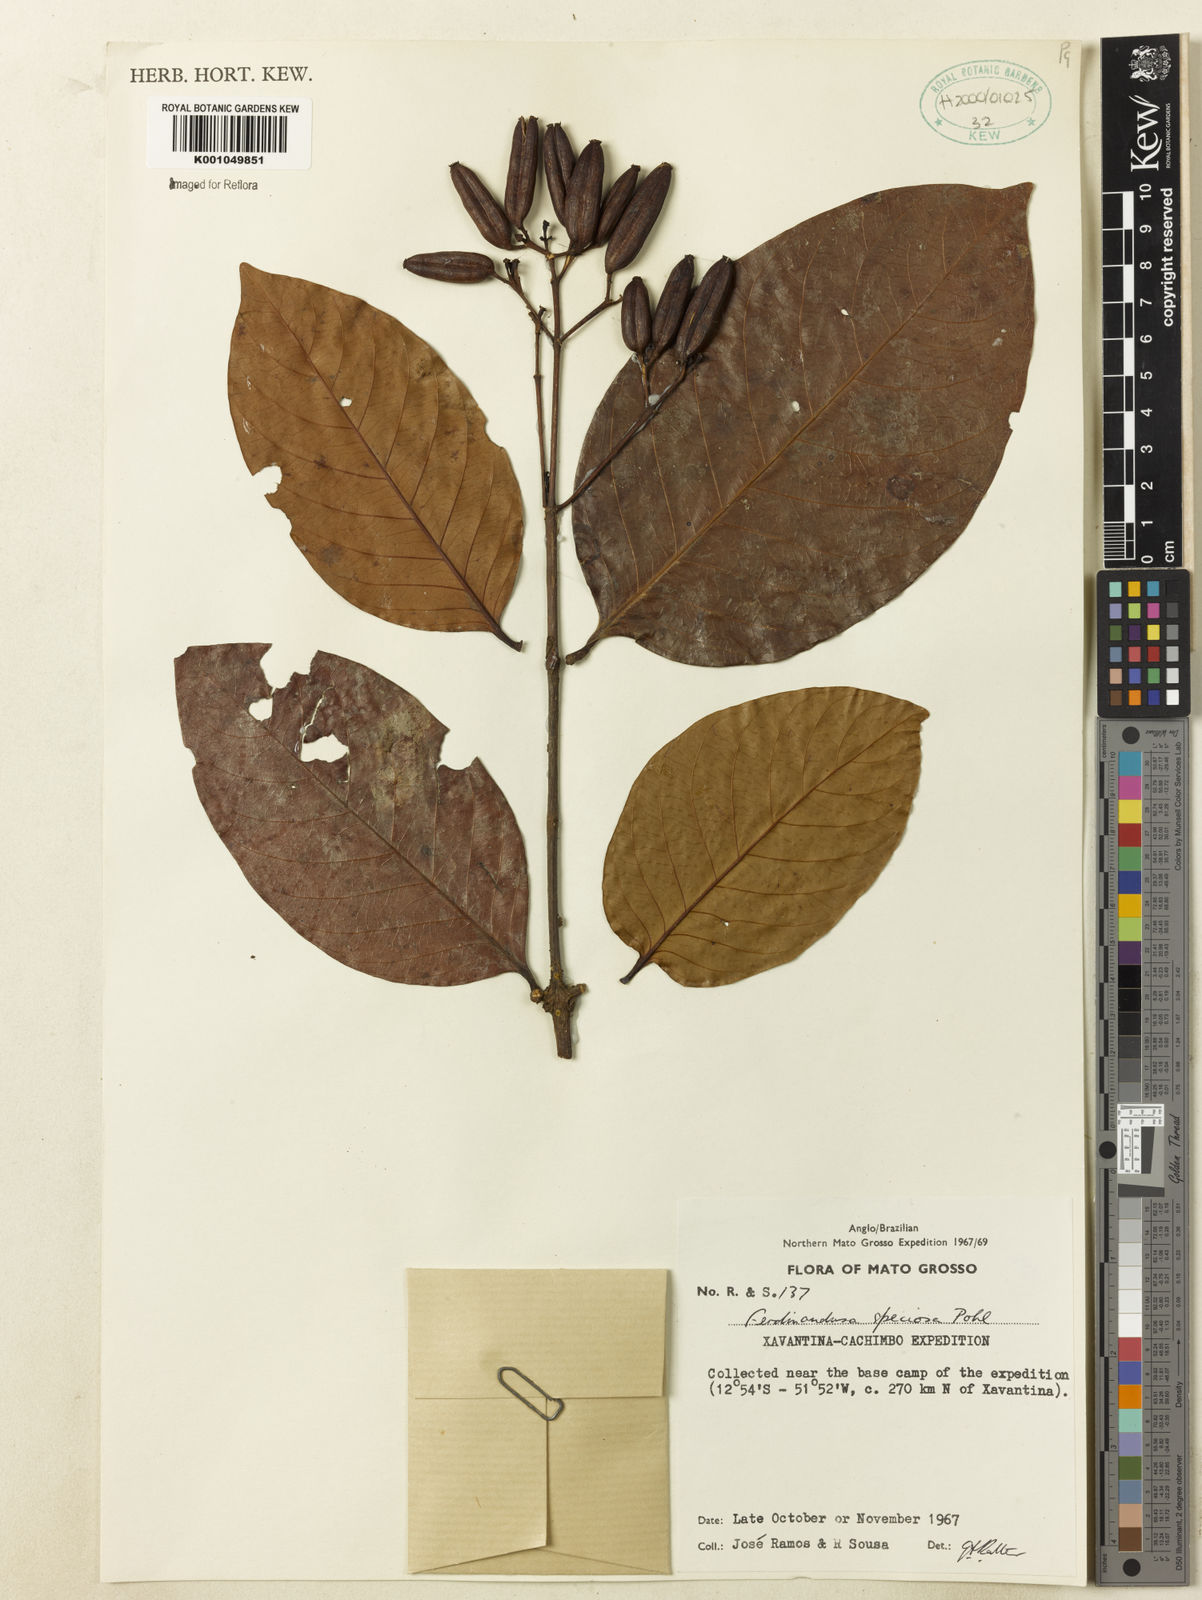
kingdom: Plantae
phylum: Tracheophyta
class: Magnoliopsida
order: Gentianales
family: Rubiaceae
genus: Ferdinandusa
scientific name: Ferdinandusa speciosa
